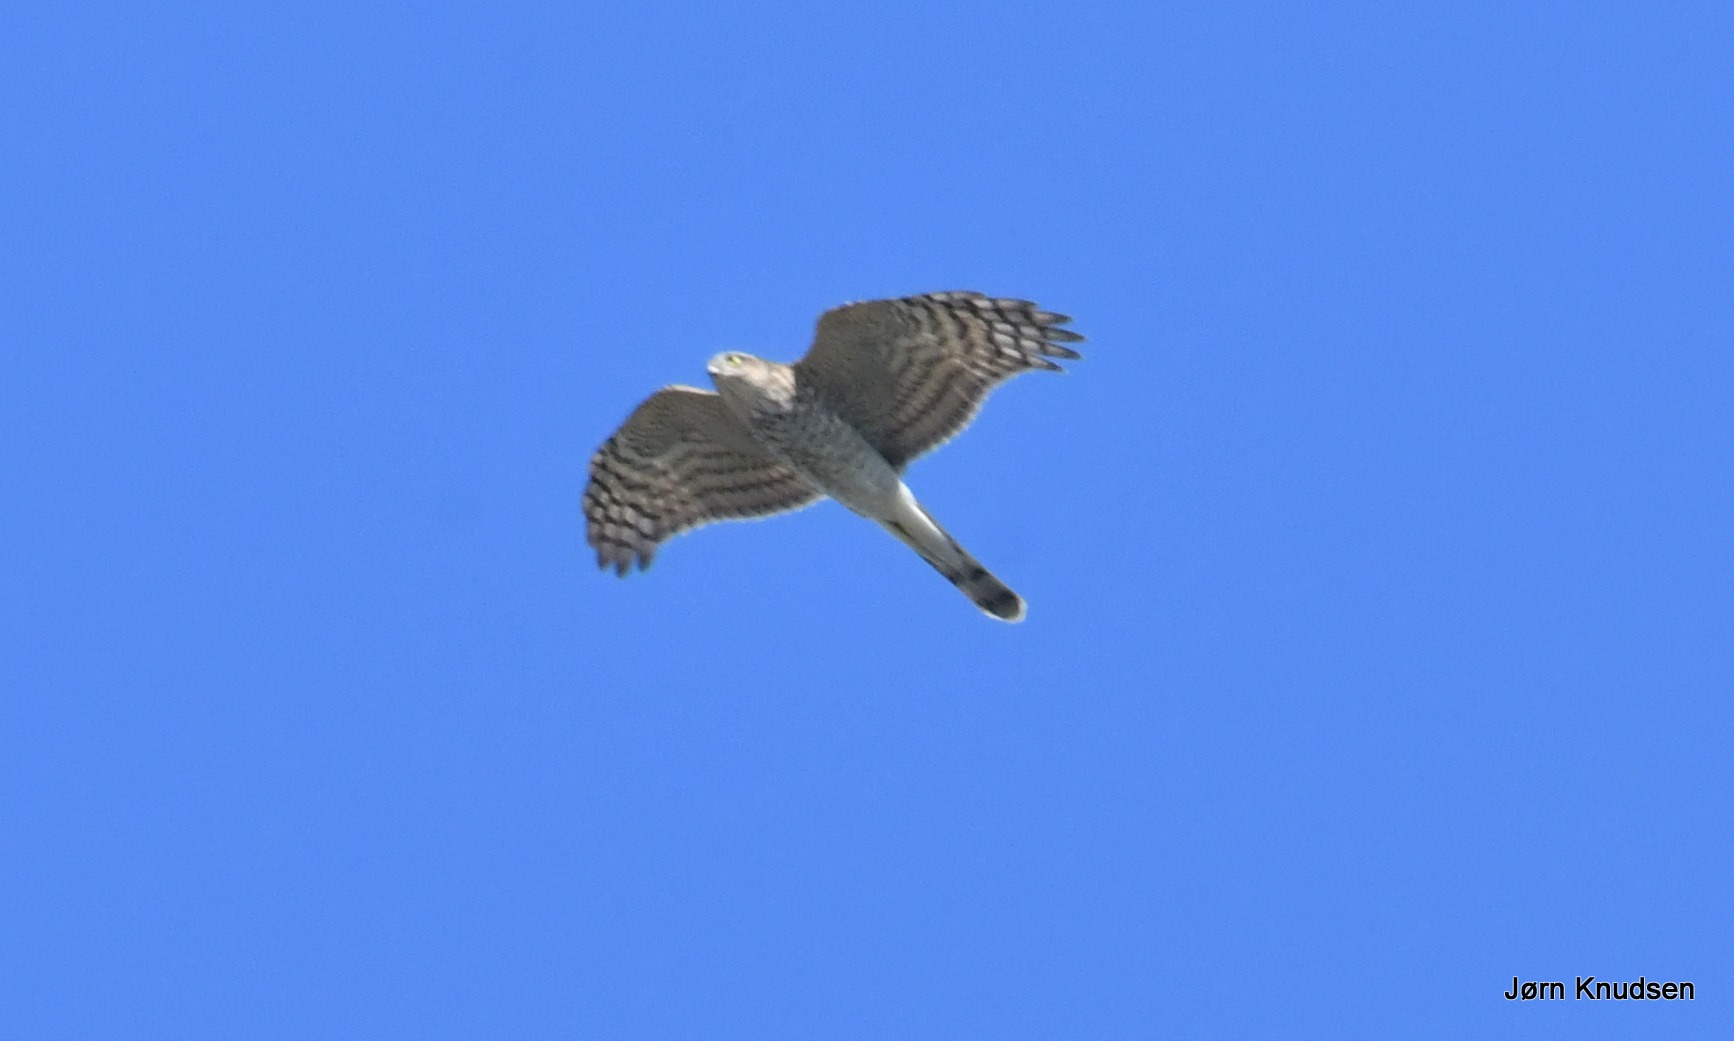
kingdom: Animalia
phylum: Chordata
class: Aves
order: Accipitriformes
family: Accipitridae
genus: Accipiter
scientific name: Accipiter nisus
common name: Spurvehøg
